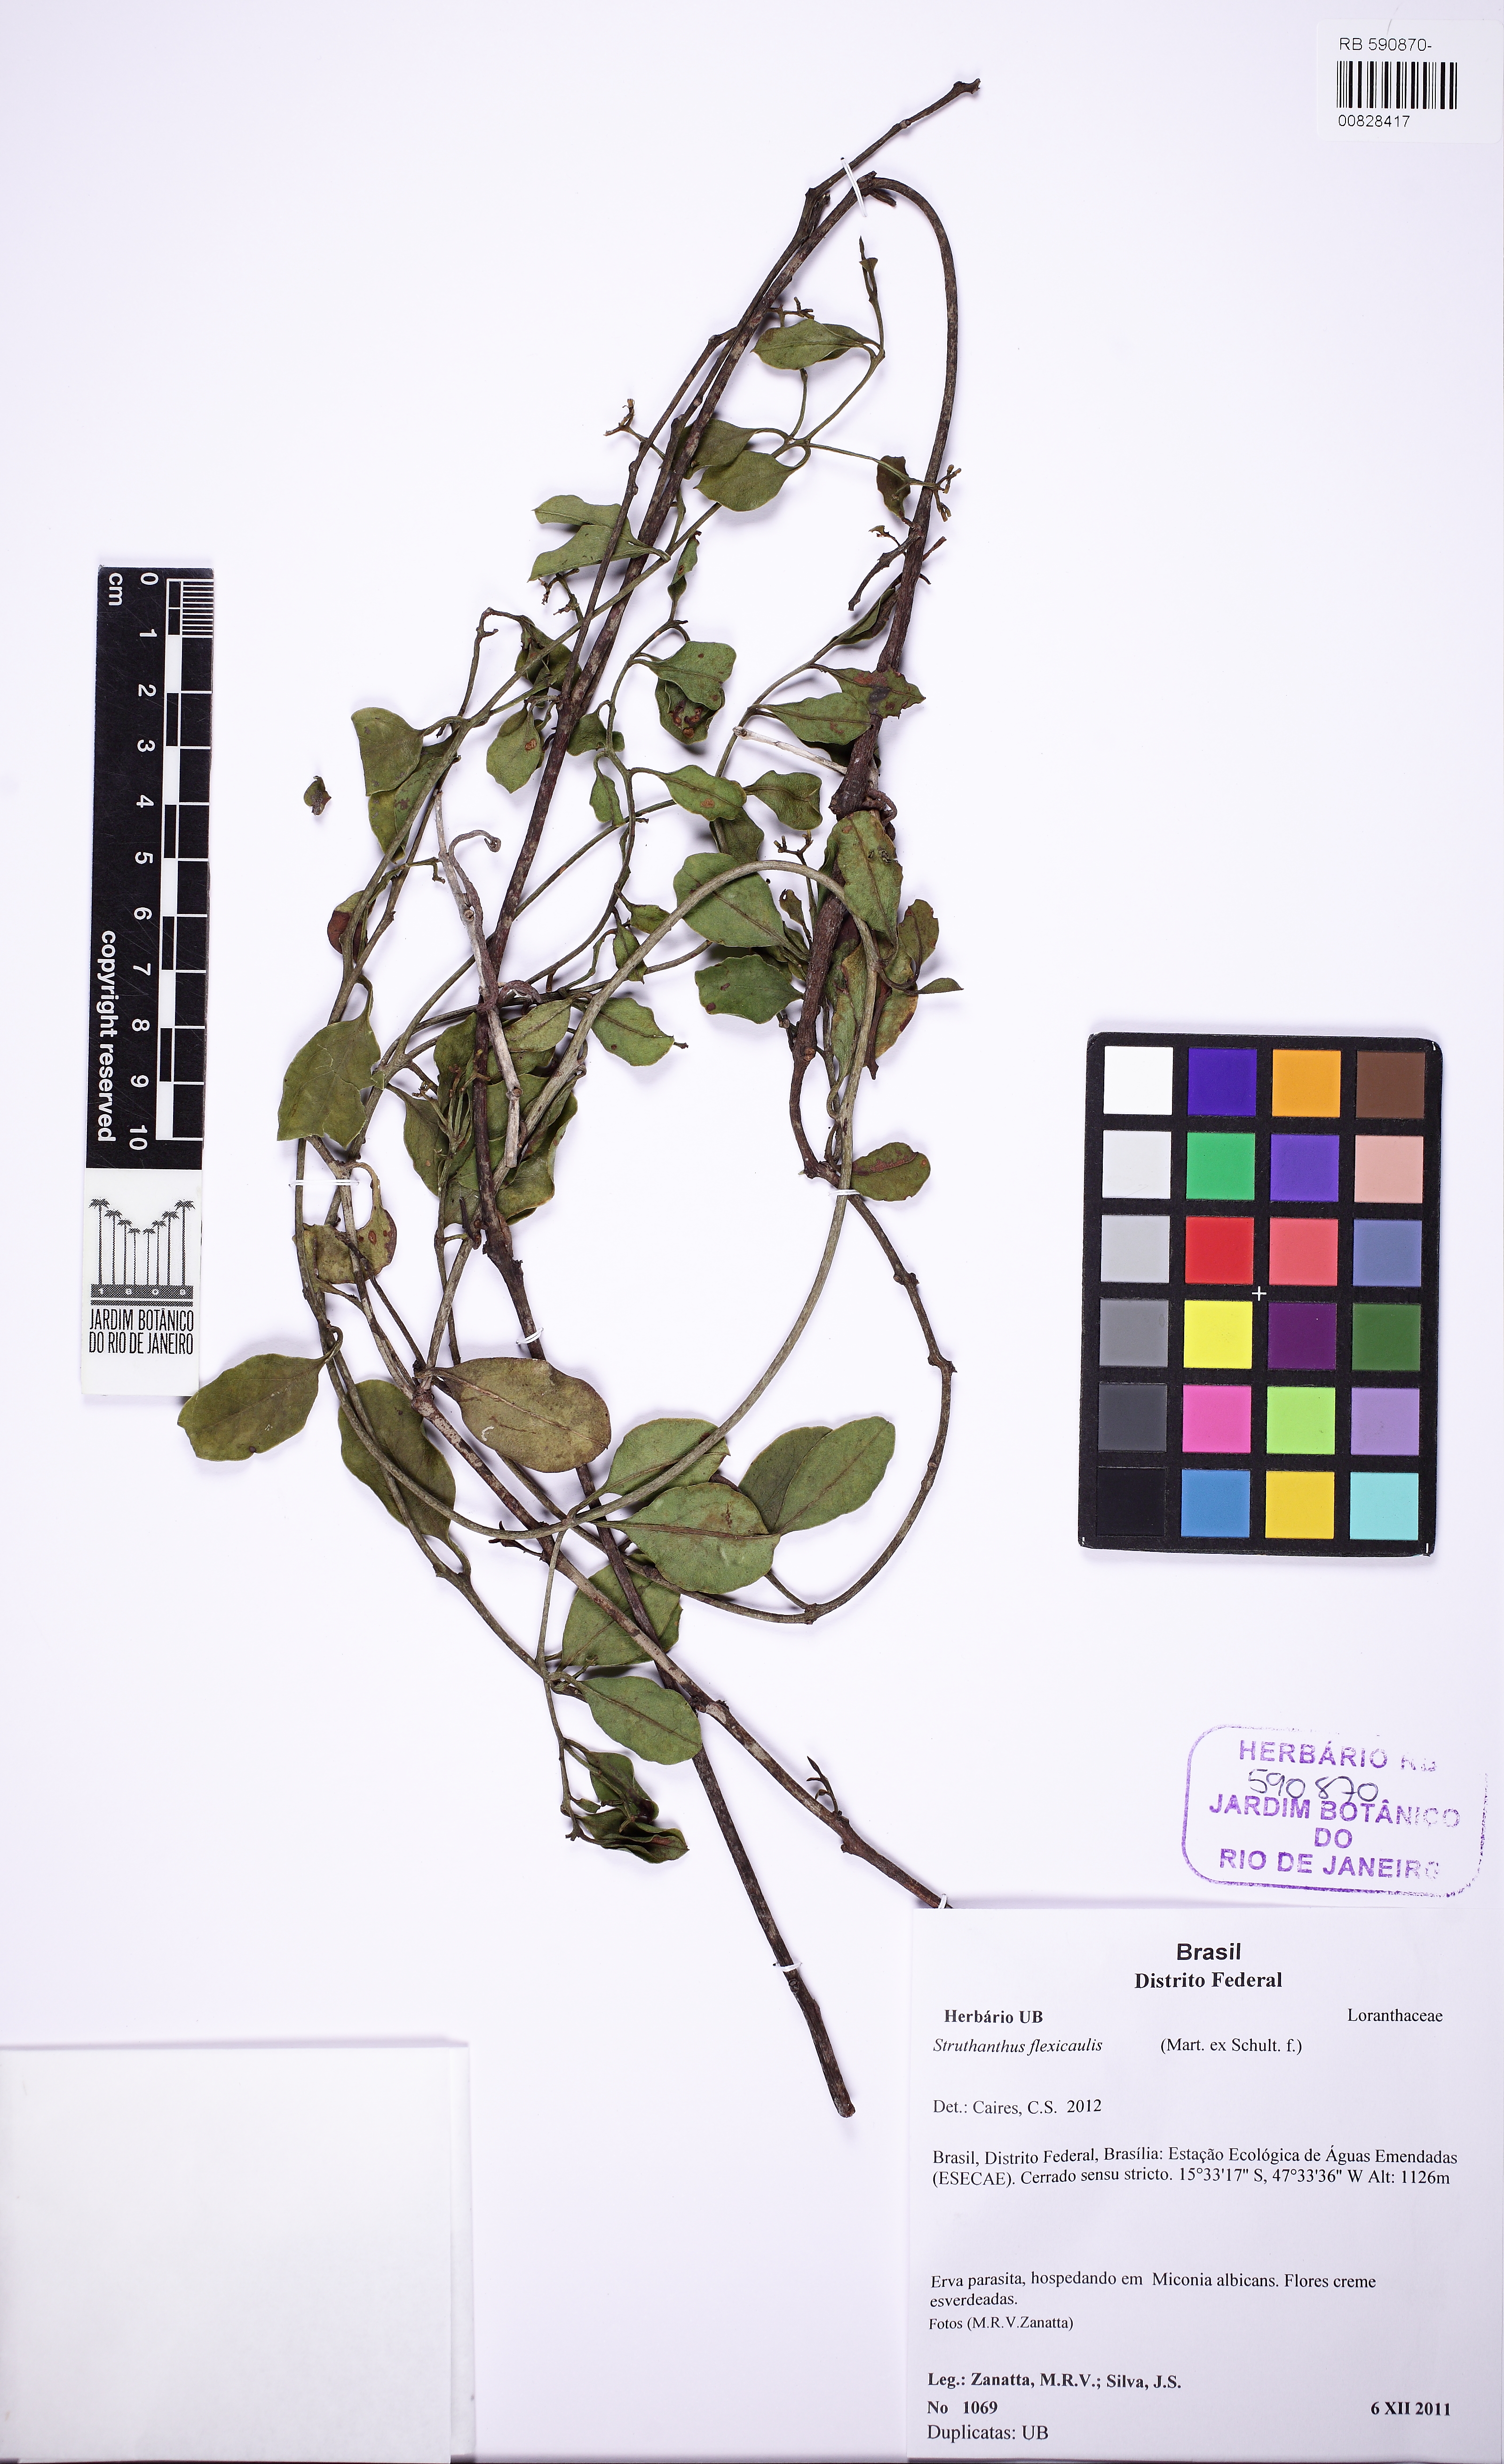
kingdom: Plantae
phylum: Tracheophyta
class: Magnoliopsida
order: Santalales
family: Loranthaceae
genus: Struthanthus
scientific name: Struthanthus flexicaulis
